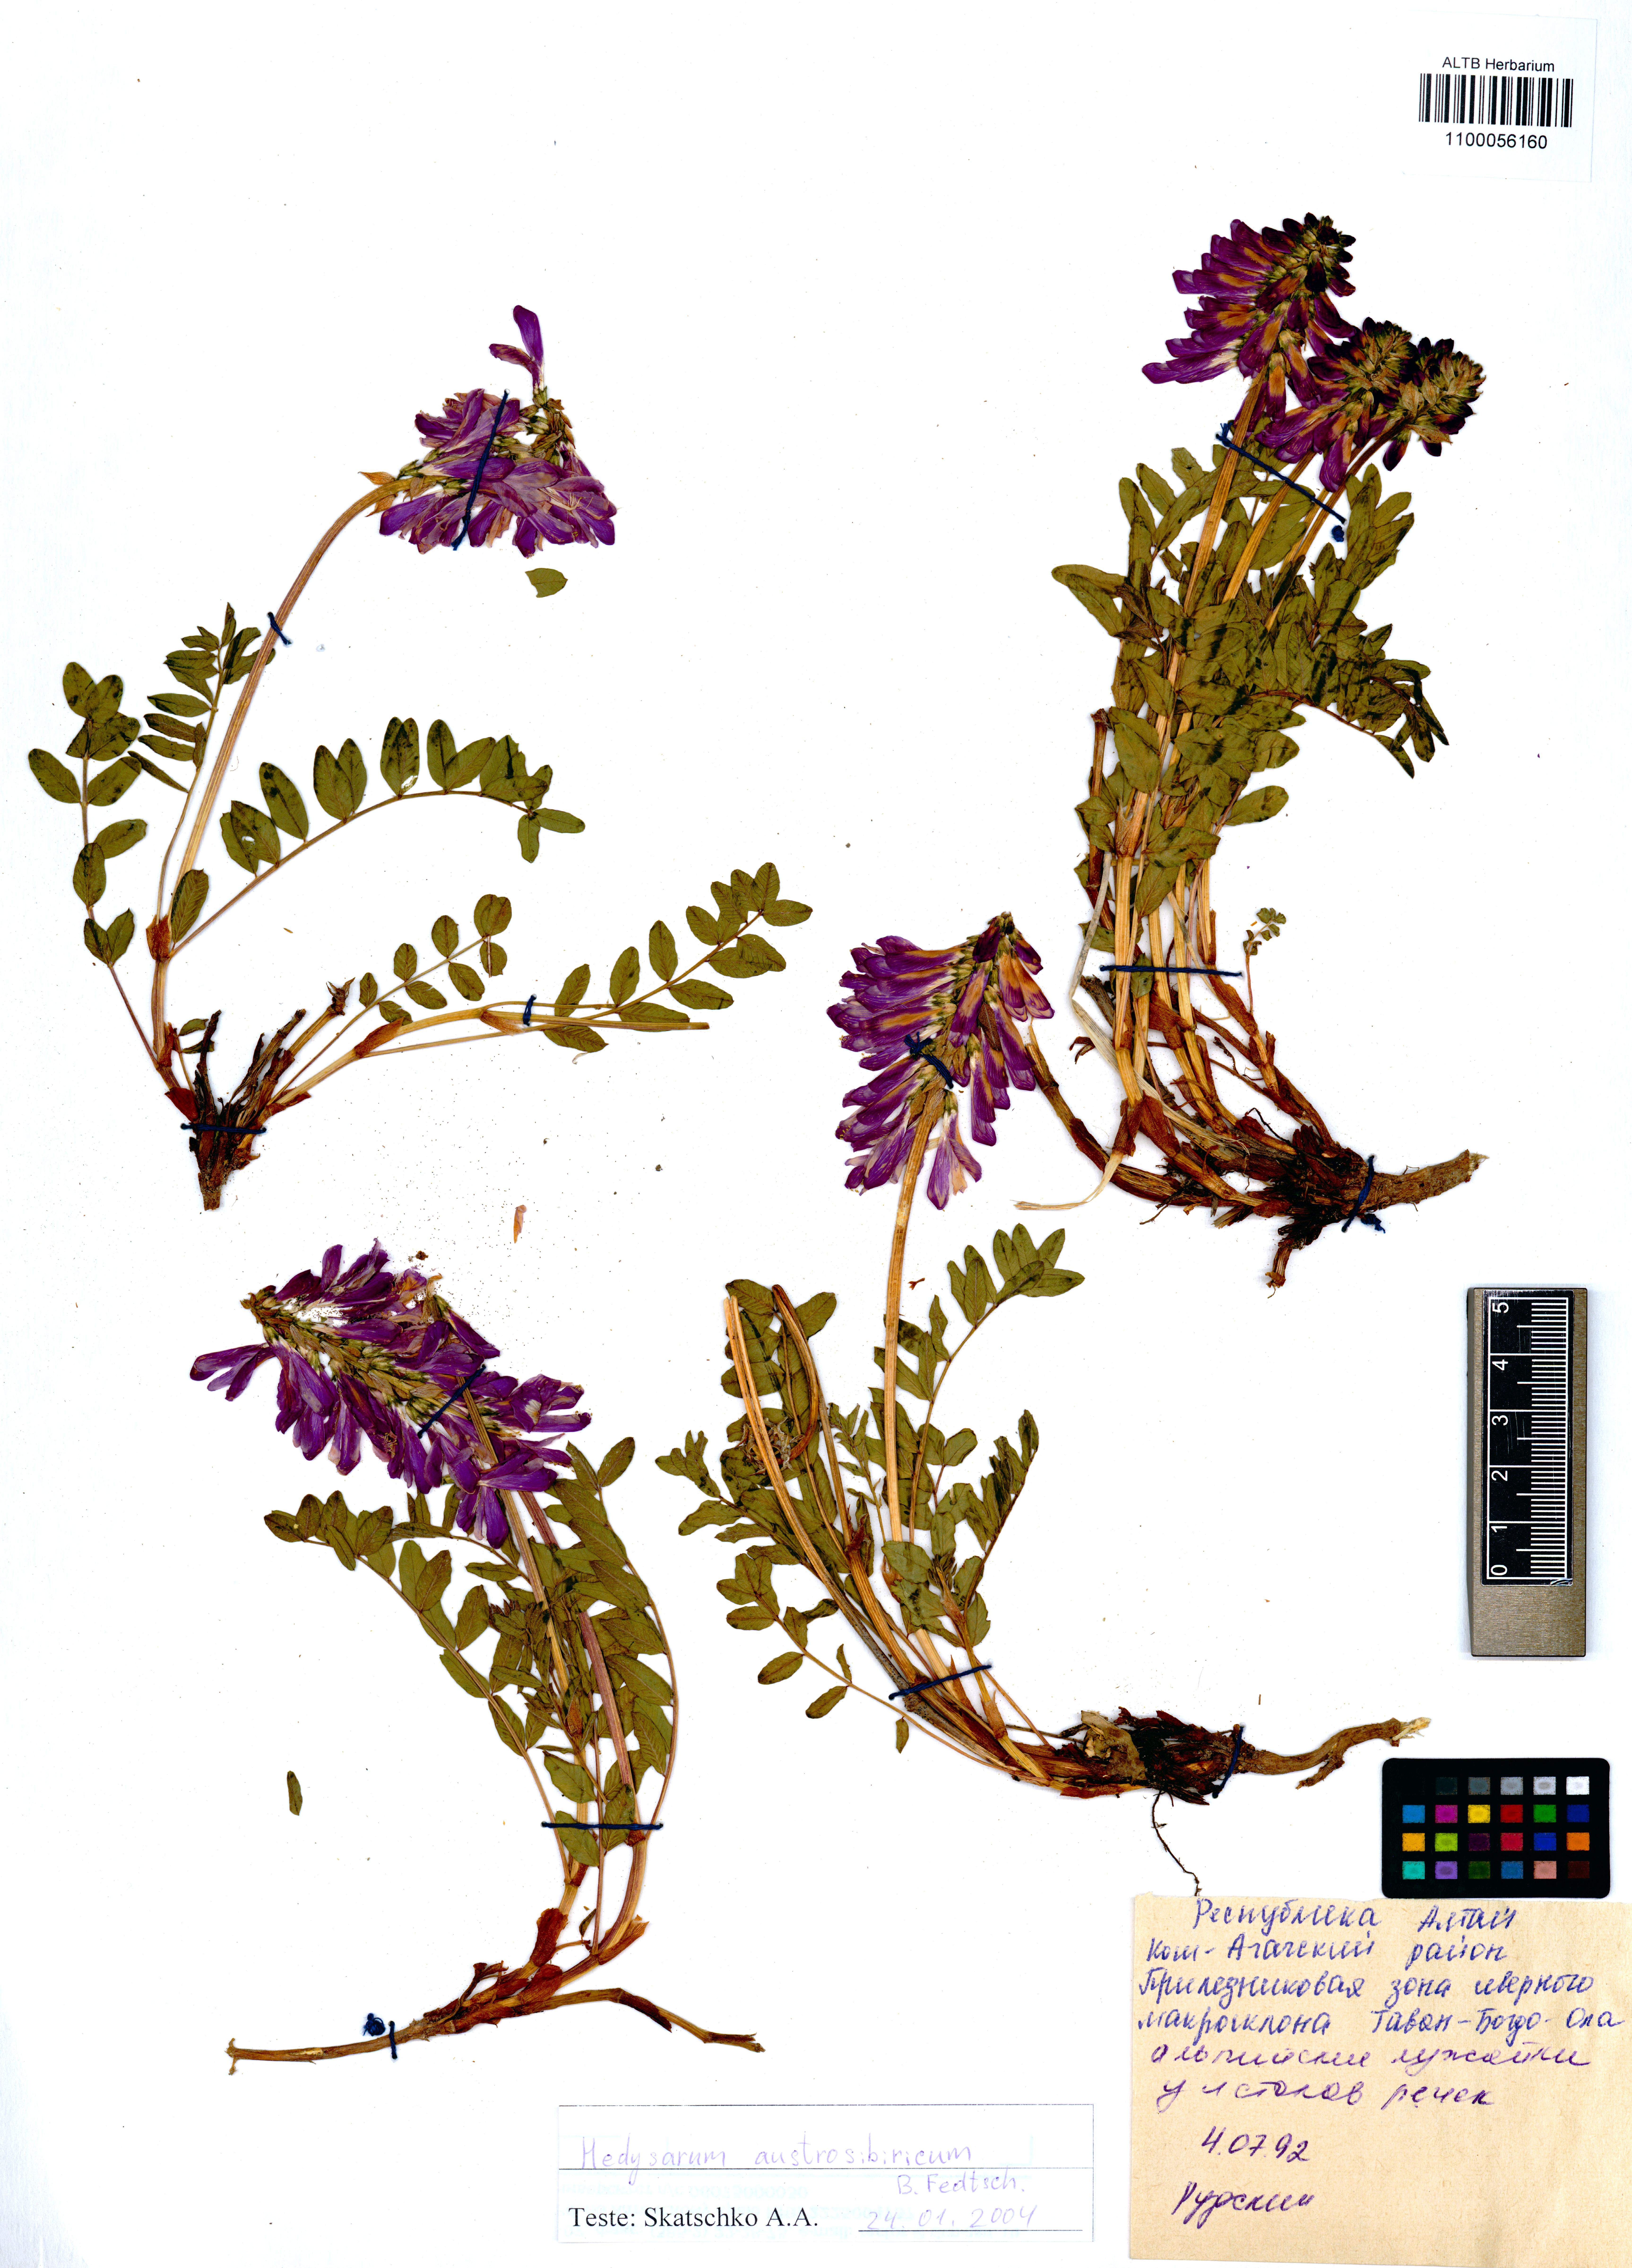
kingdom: Plantae
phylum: Tracheophyta
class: Magnoliopsida
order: Fabales
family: Fabaceae
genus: Hedysarum
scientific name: Hedysarum neglectum
